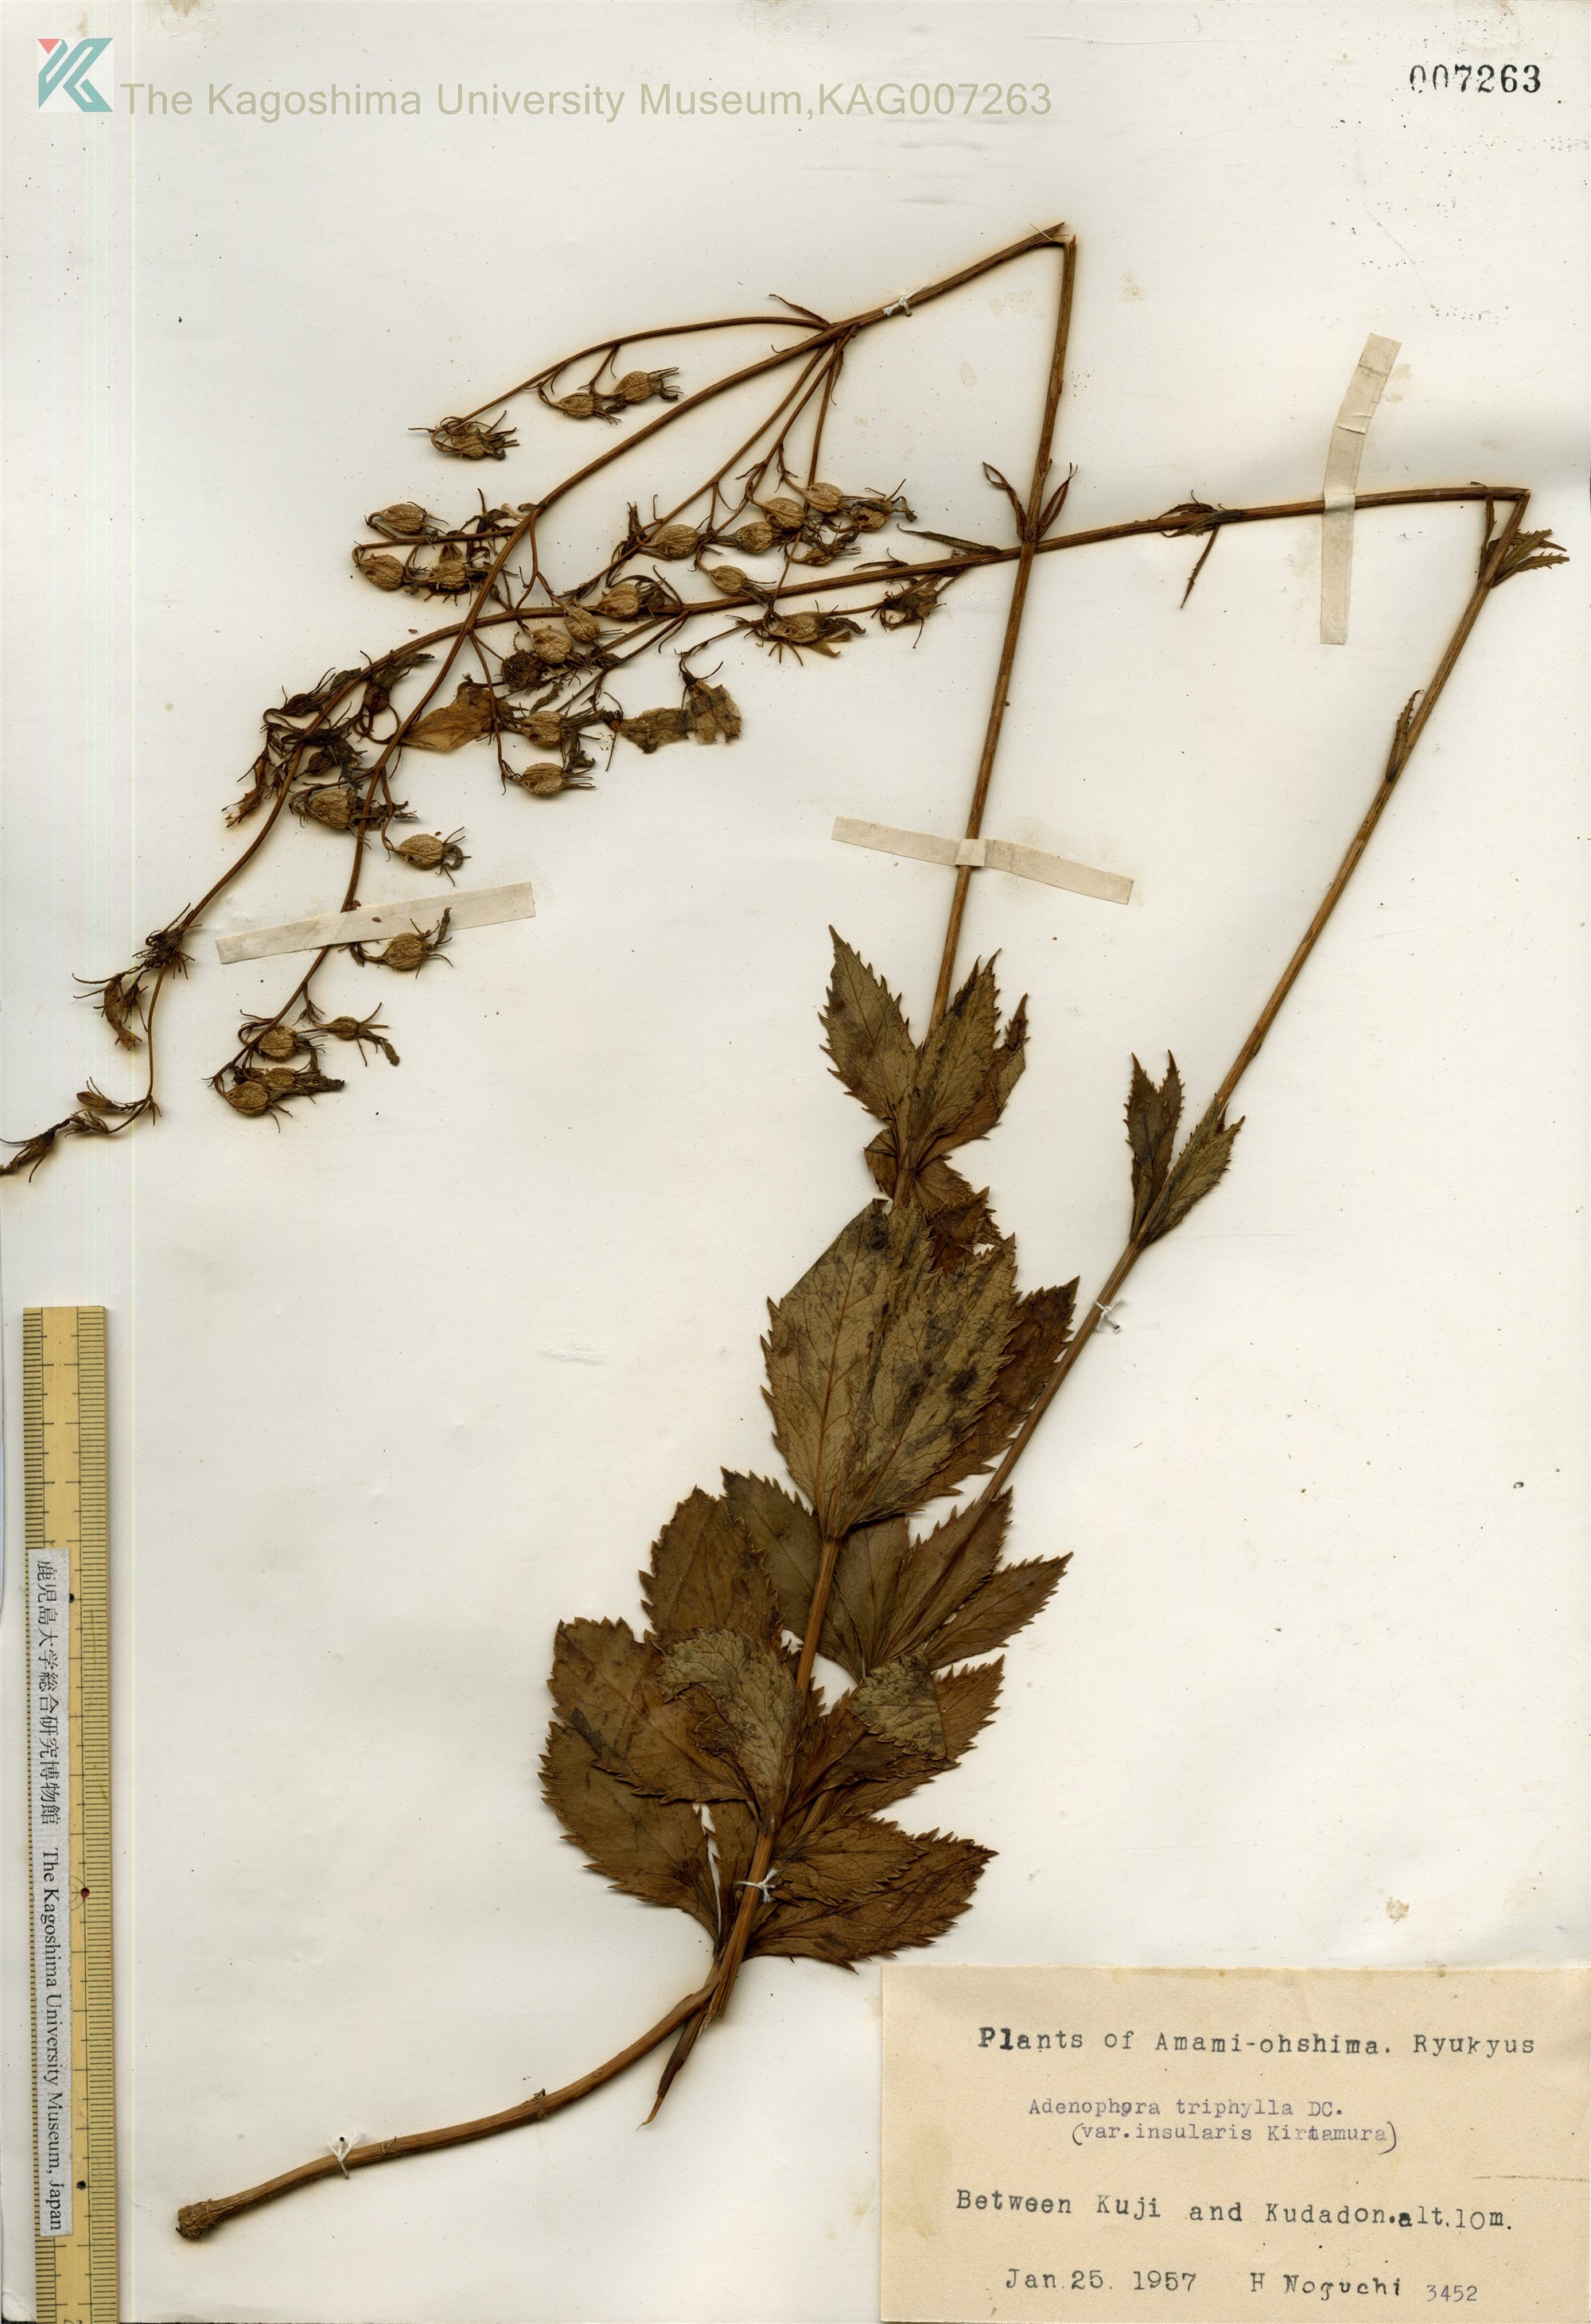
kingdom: Plantae
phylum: Tracheophyta
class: Magnoliopsida
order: Asterales
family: Campanulaceae
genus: Adenophora
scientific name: Adenophora tashiroi
